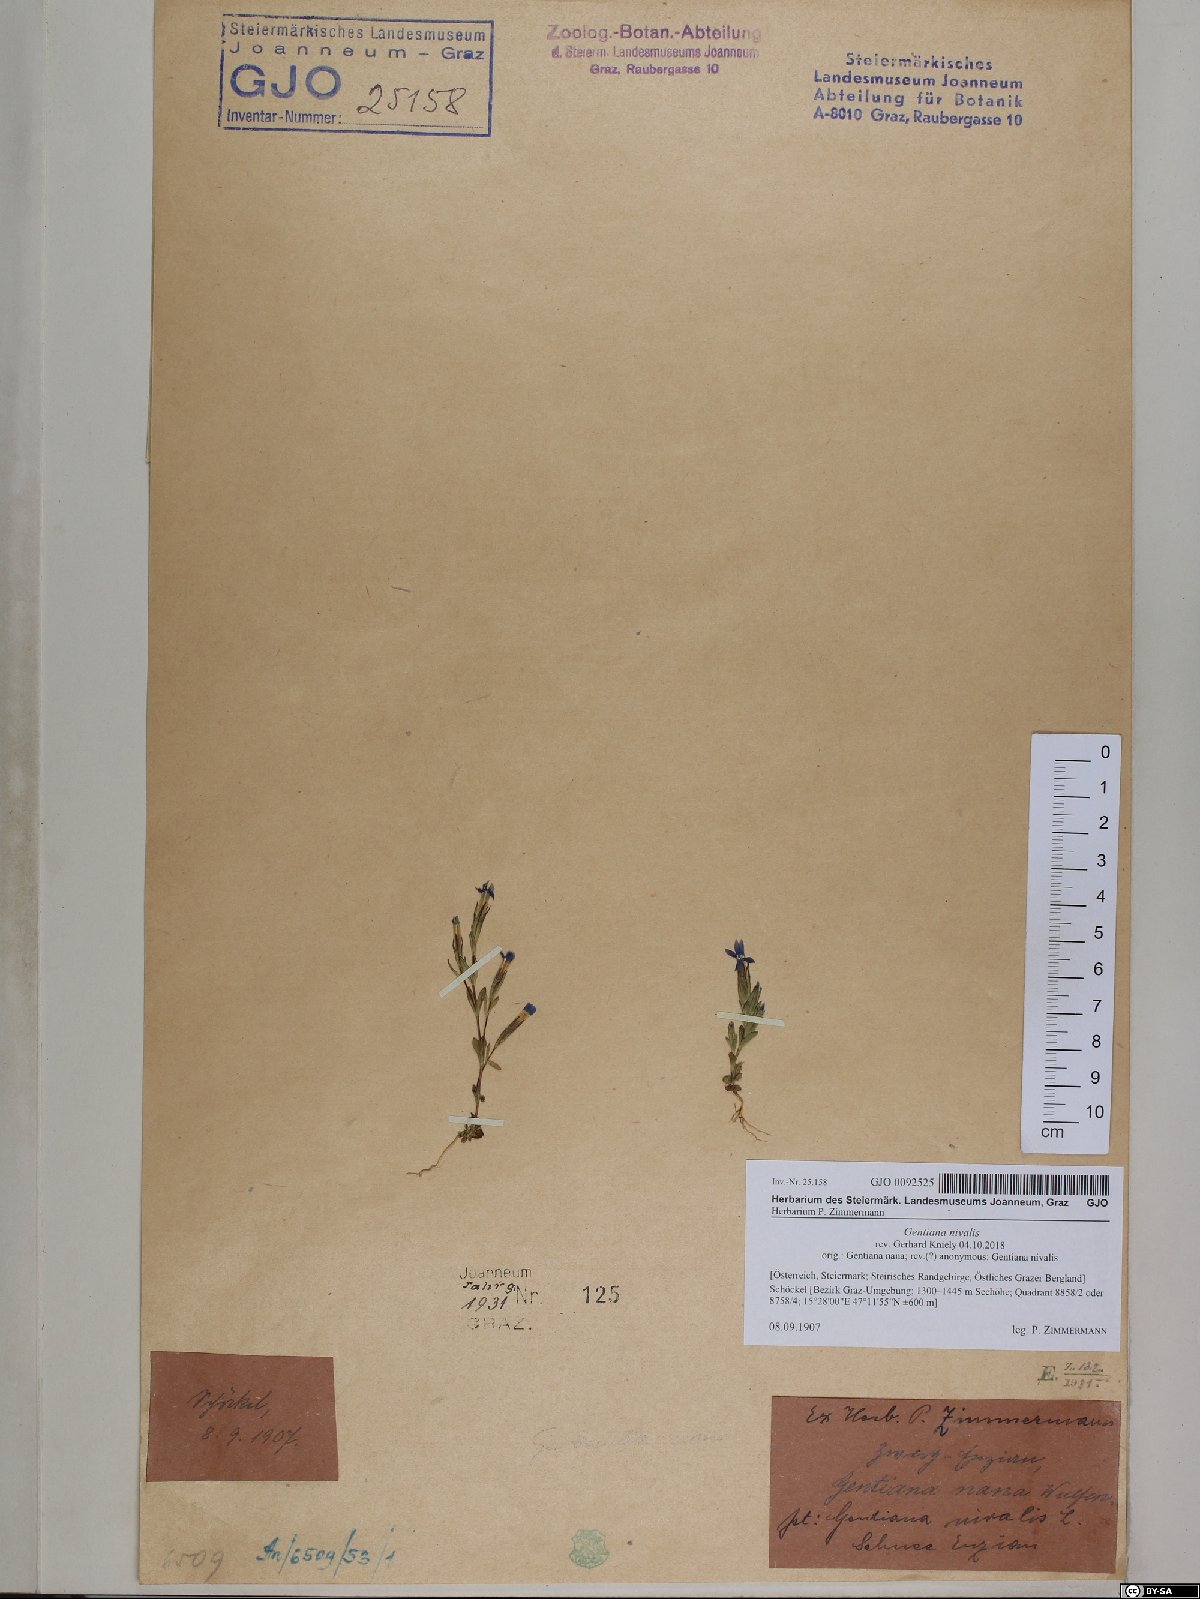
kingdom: Plantae
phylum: Tracheophyta
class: Magnoliopsida
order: Gentianales
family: Gentianaceae
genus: Gentiana
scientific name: Gentiana nivalis
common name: Alpine gentian
